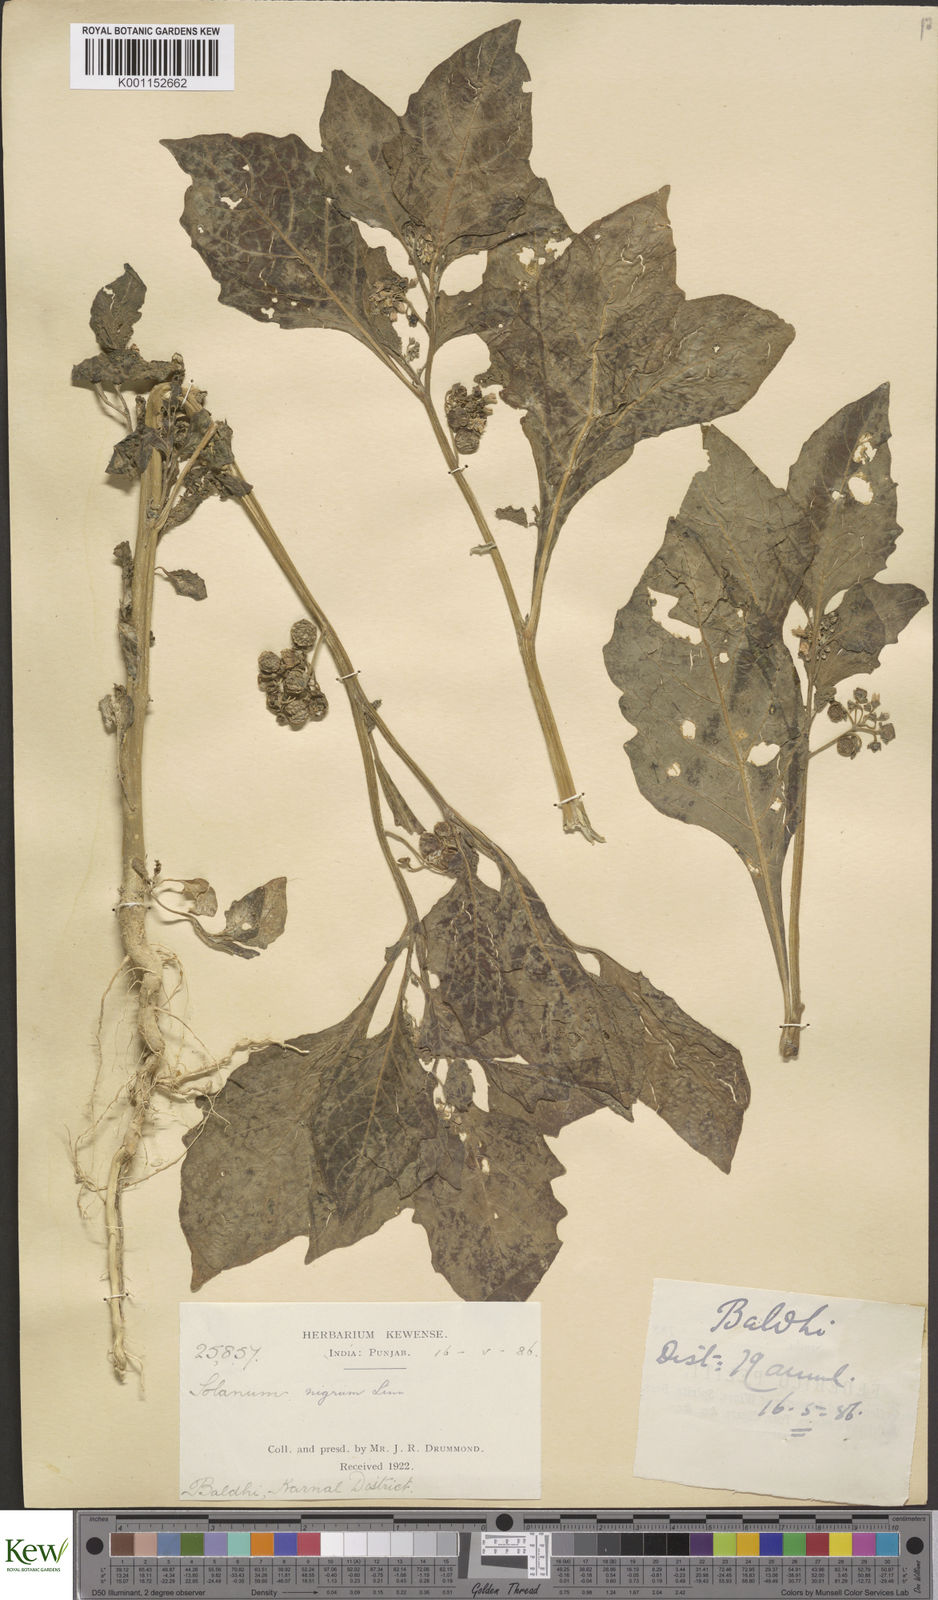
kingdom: Plantae
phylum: Tracheophyta
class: Magnoliopsida
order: Solanales
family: Solanaceae
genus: Solanum
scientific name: Solanum nigrum
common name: Black nightshade
